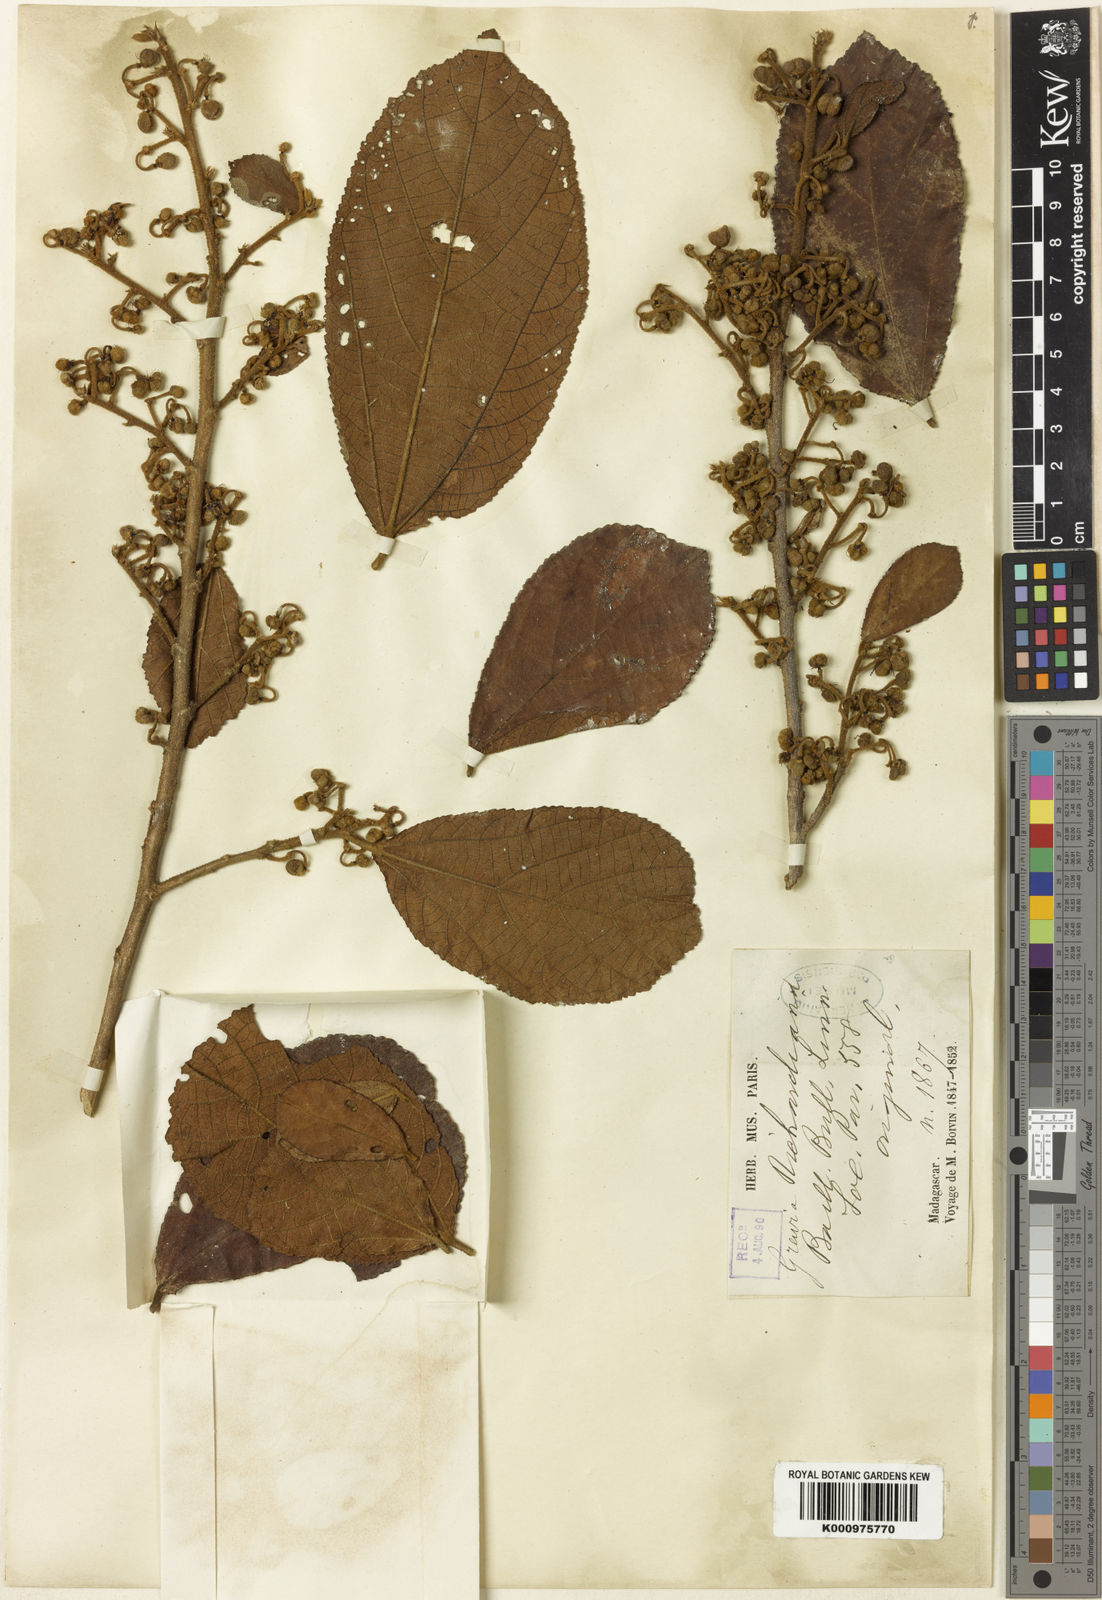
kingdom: Plantae
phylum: Tracheophyta
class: Magnoliopsida
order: Malvales
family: Malvaceae
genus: Grewia
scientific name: Grewia apetala
